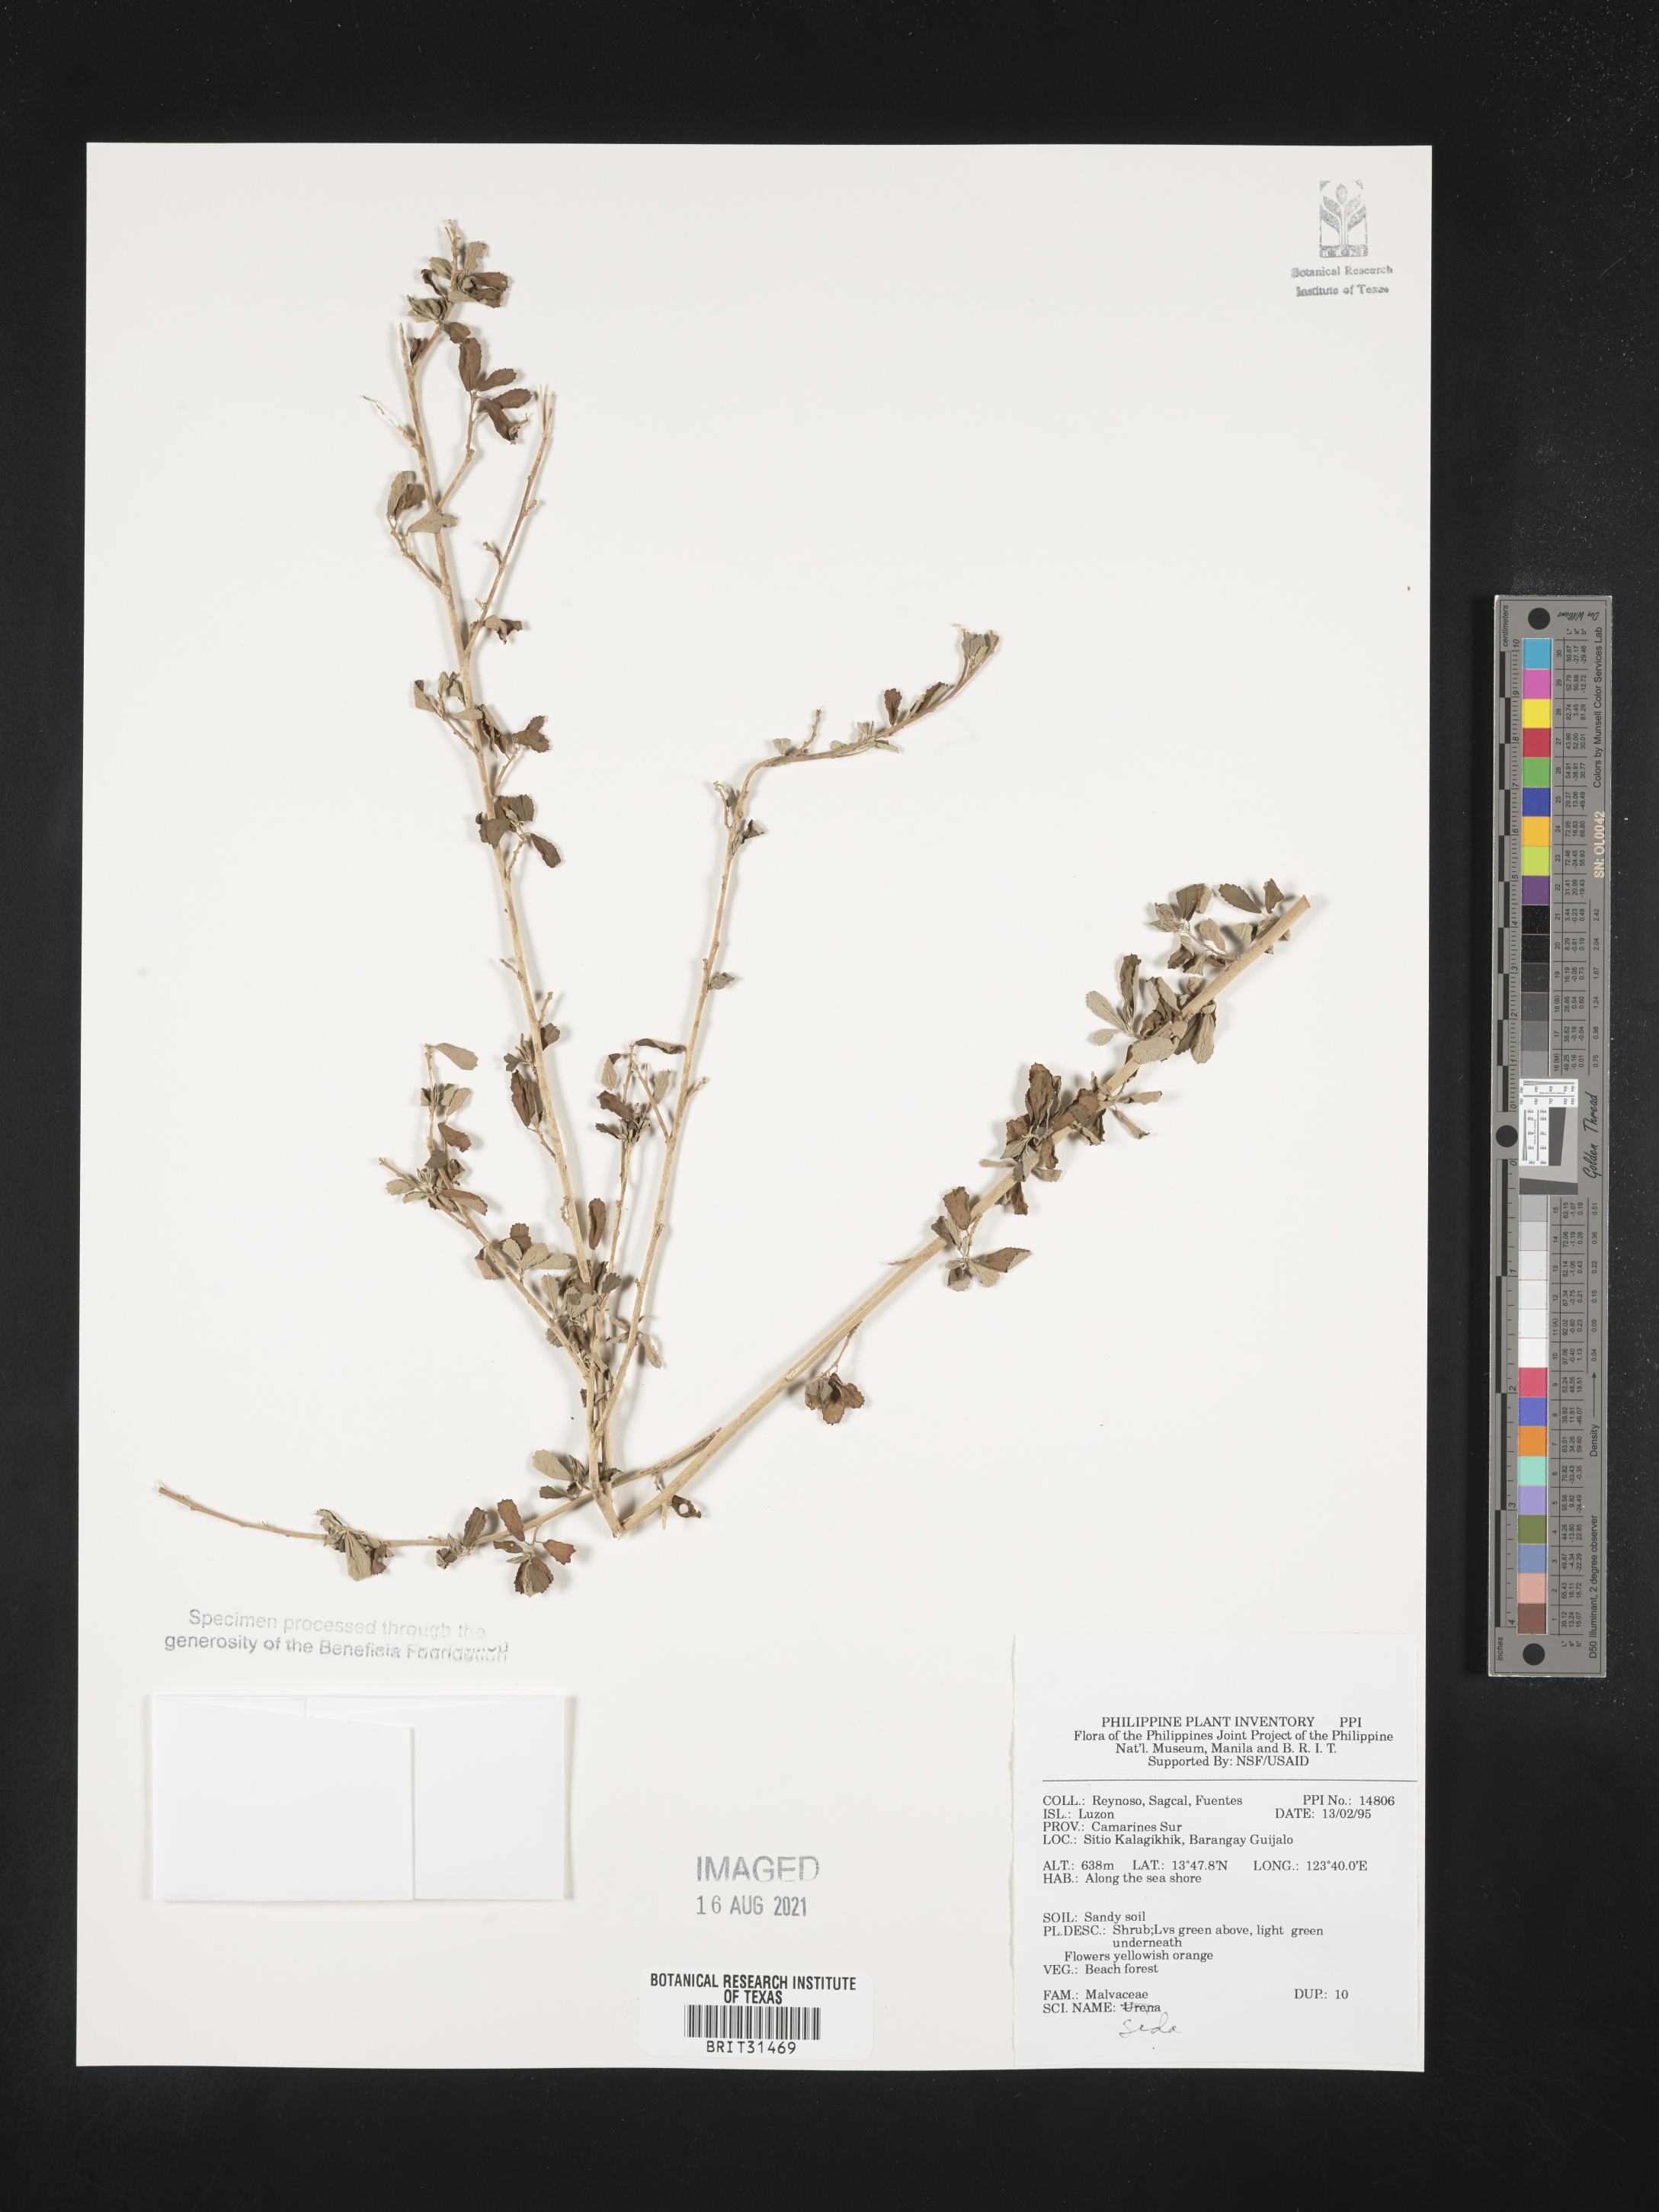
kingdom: Plantae
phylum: Tracheophyta
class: Magnoliopsida
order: Malvales
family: Malvaceae
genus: Sida
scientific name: Sida
